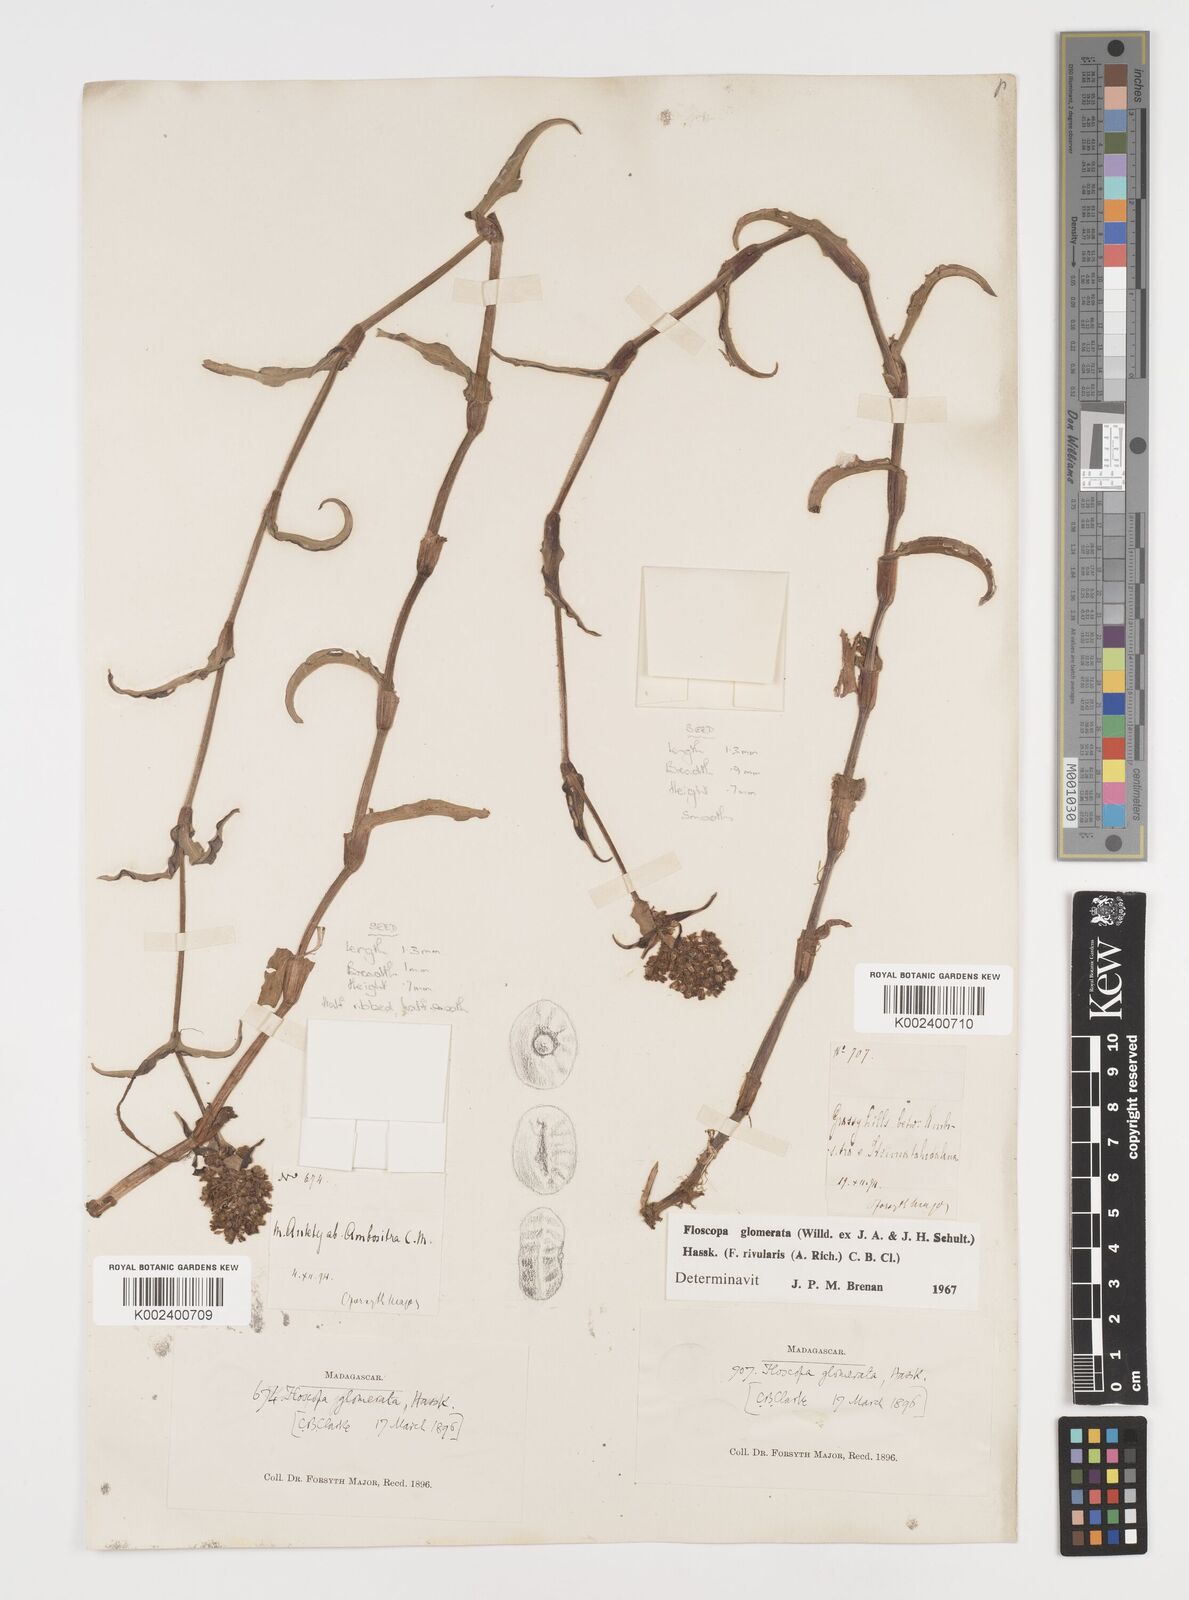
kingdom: Plantae
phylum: Tracheophyta
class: Liliopsida
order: Commelinales
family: Commelinaceae
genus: Floscopa
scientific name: Floscopa glomerata
